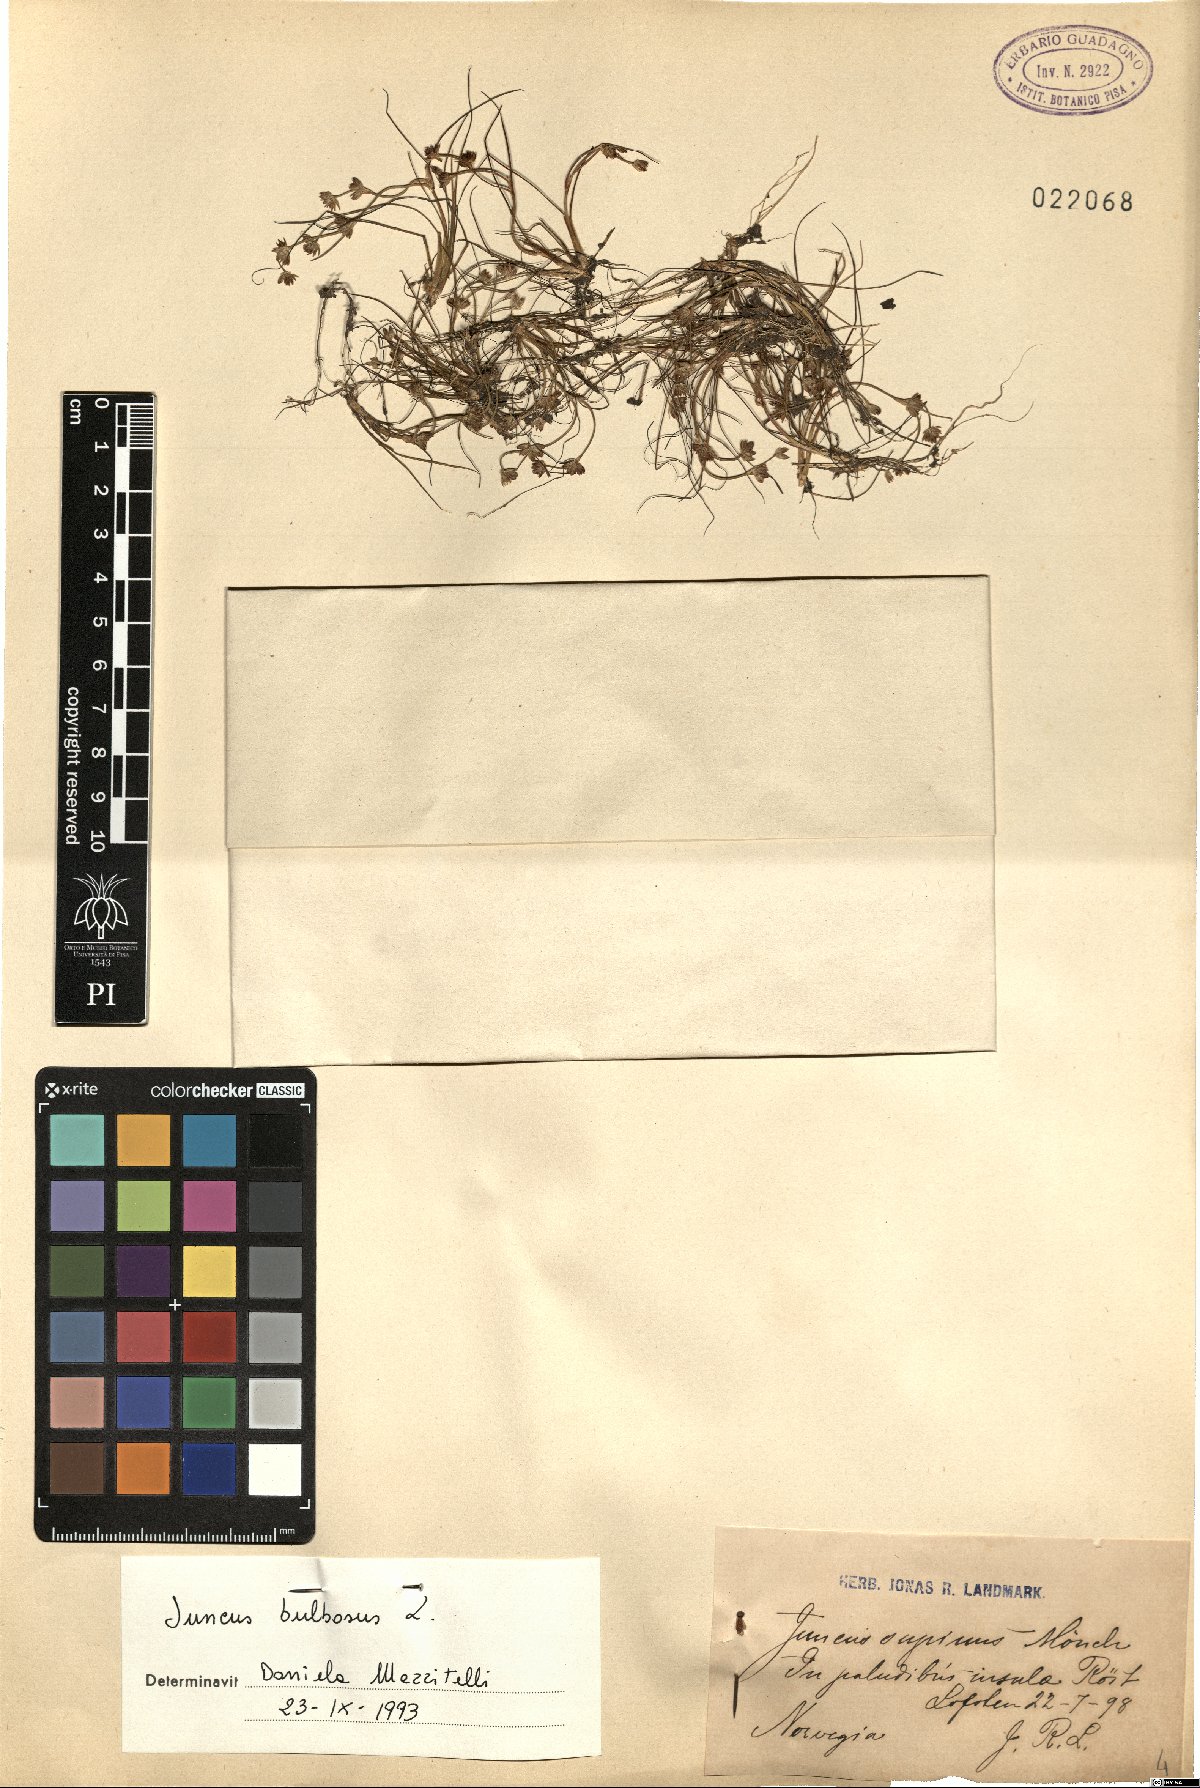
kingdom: Plantae
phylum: Tracheophyta
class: Liliopsida
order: Poales
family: Juncaceae
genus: Juncus
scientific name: Juncus bulbosus
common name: Bulbous rush
